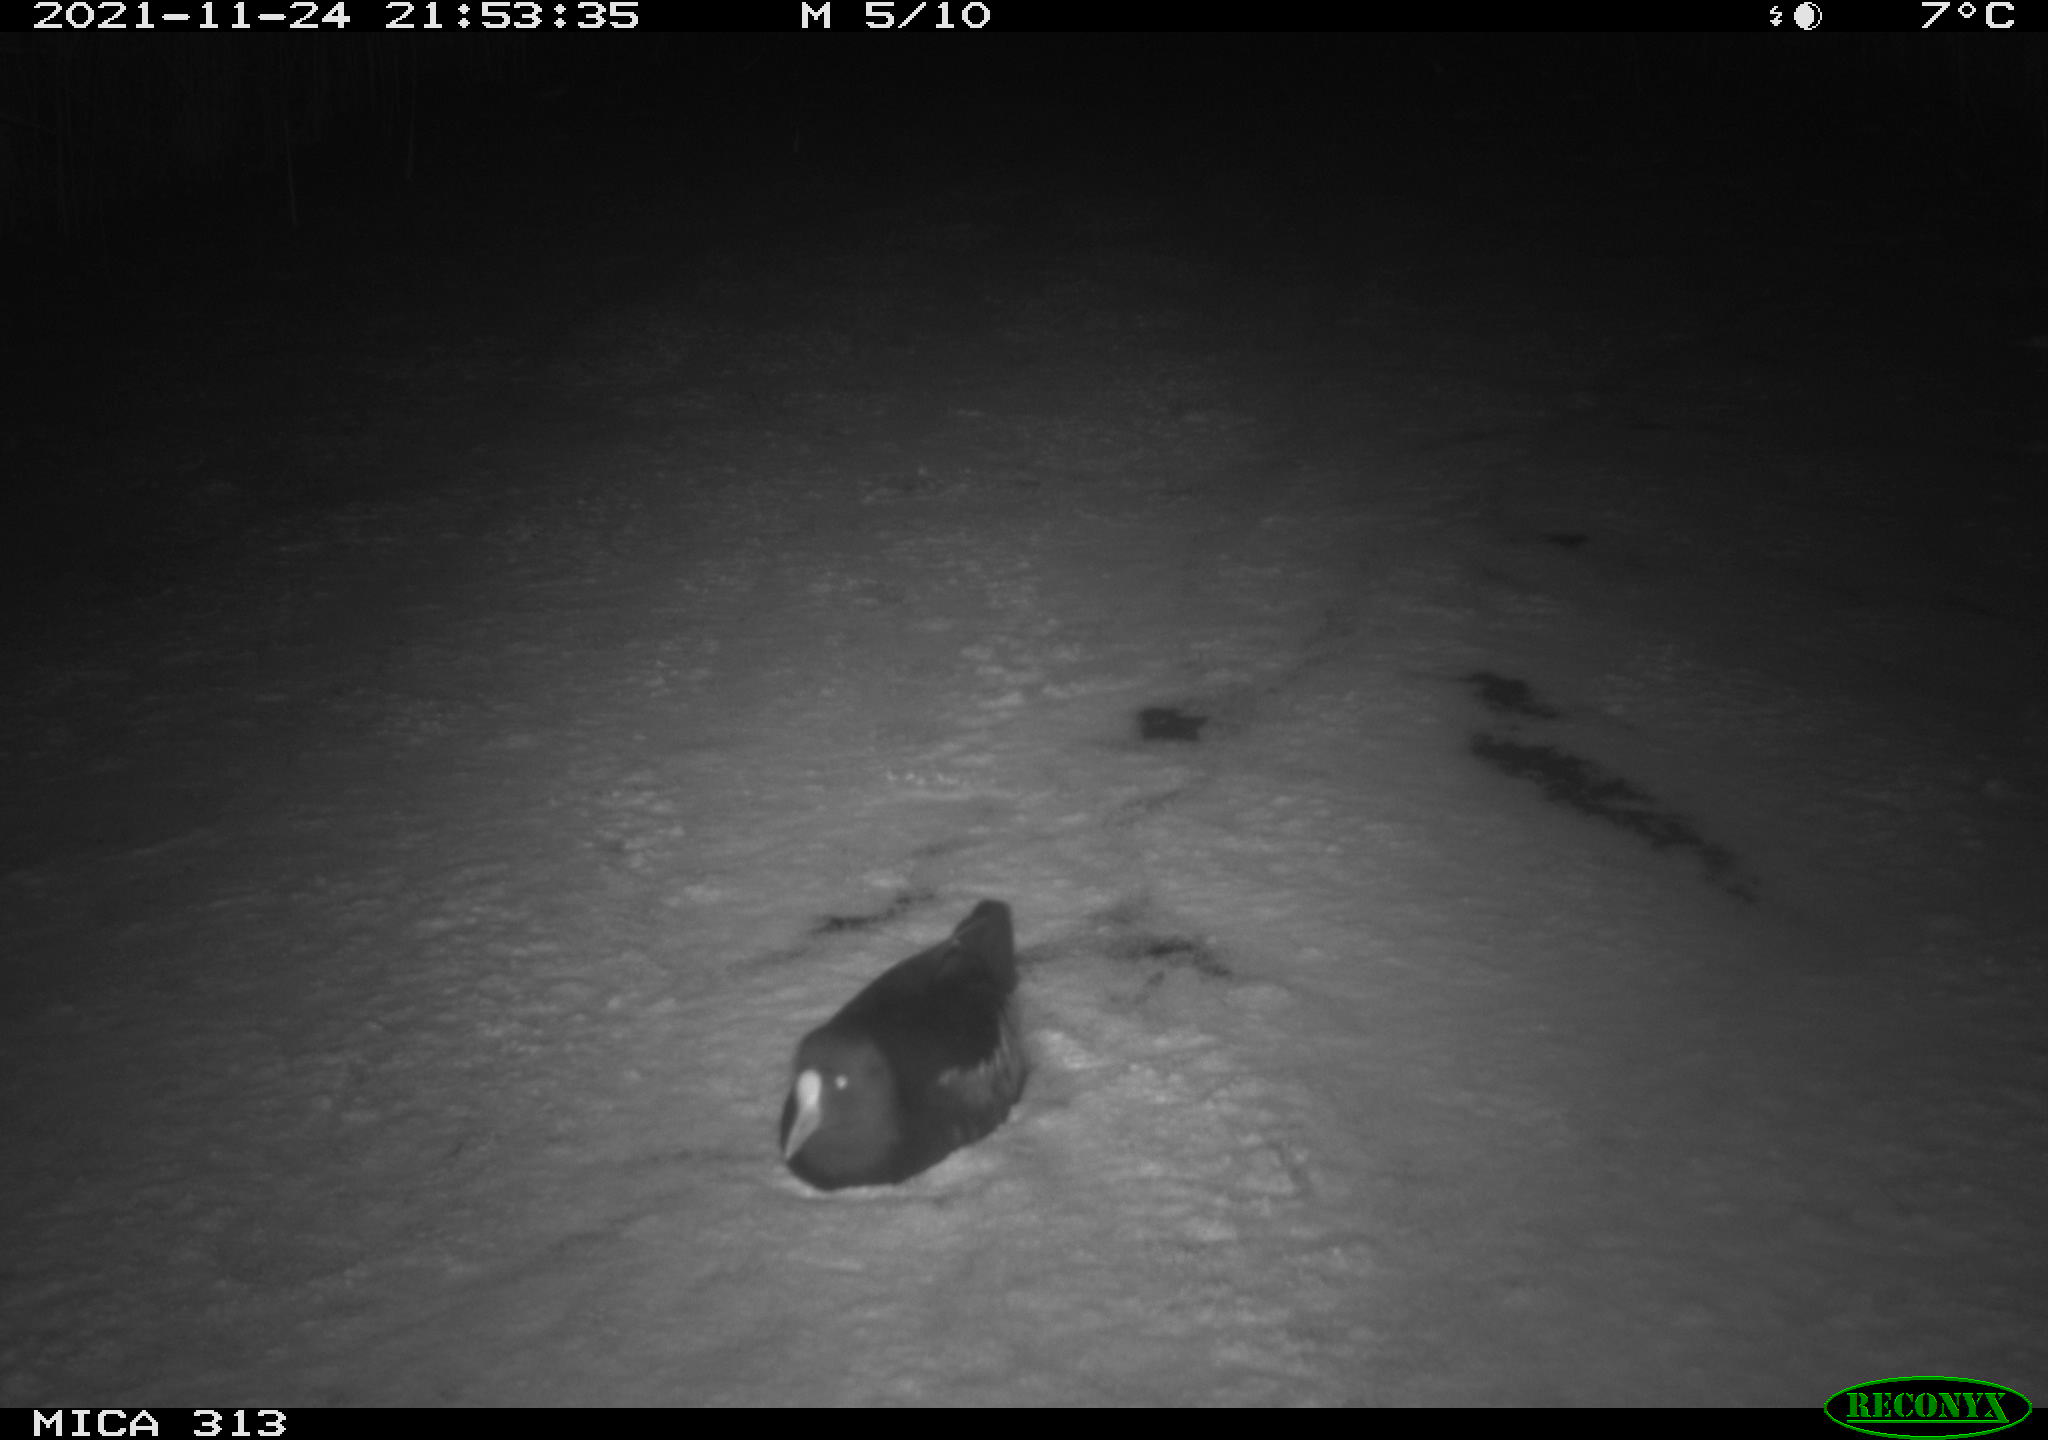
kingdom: Animalia
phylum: Chordata
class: Aves
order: Gruiformes
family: Rallidae
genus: Gallinula
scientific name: Gallinula chloropus
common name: Common moorhen
